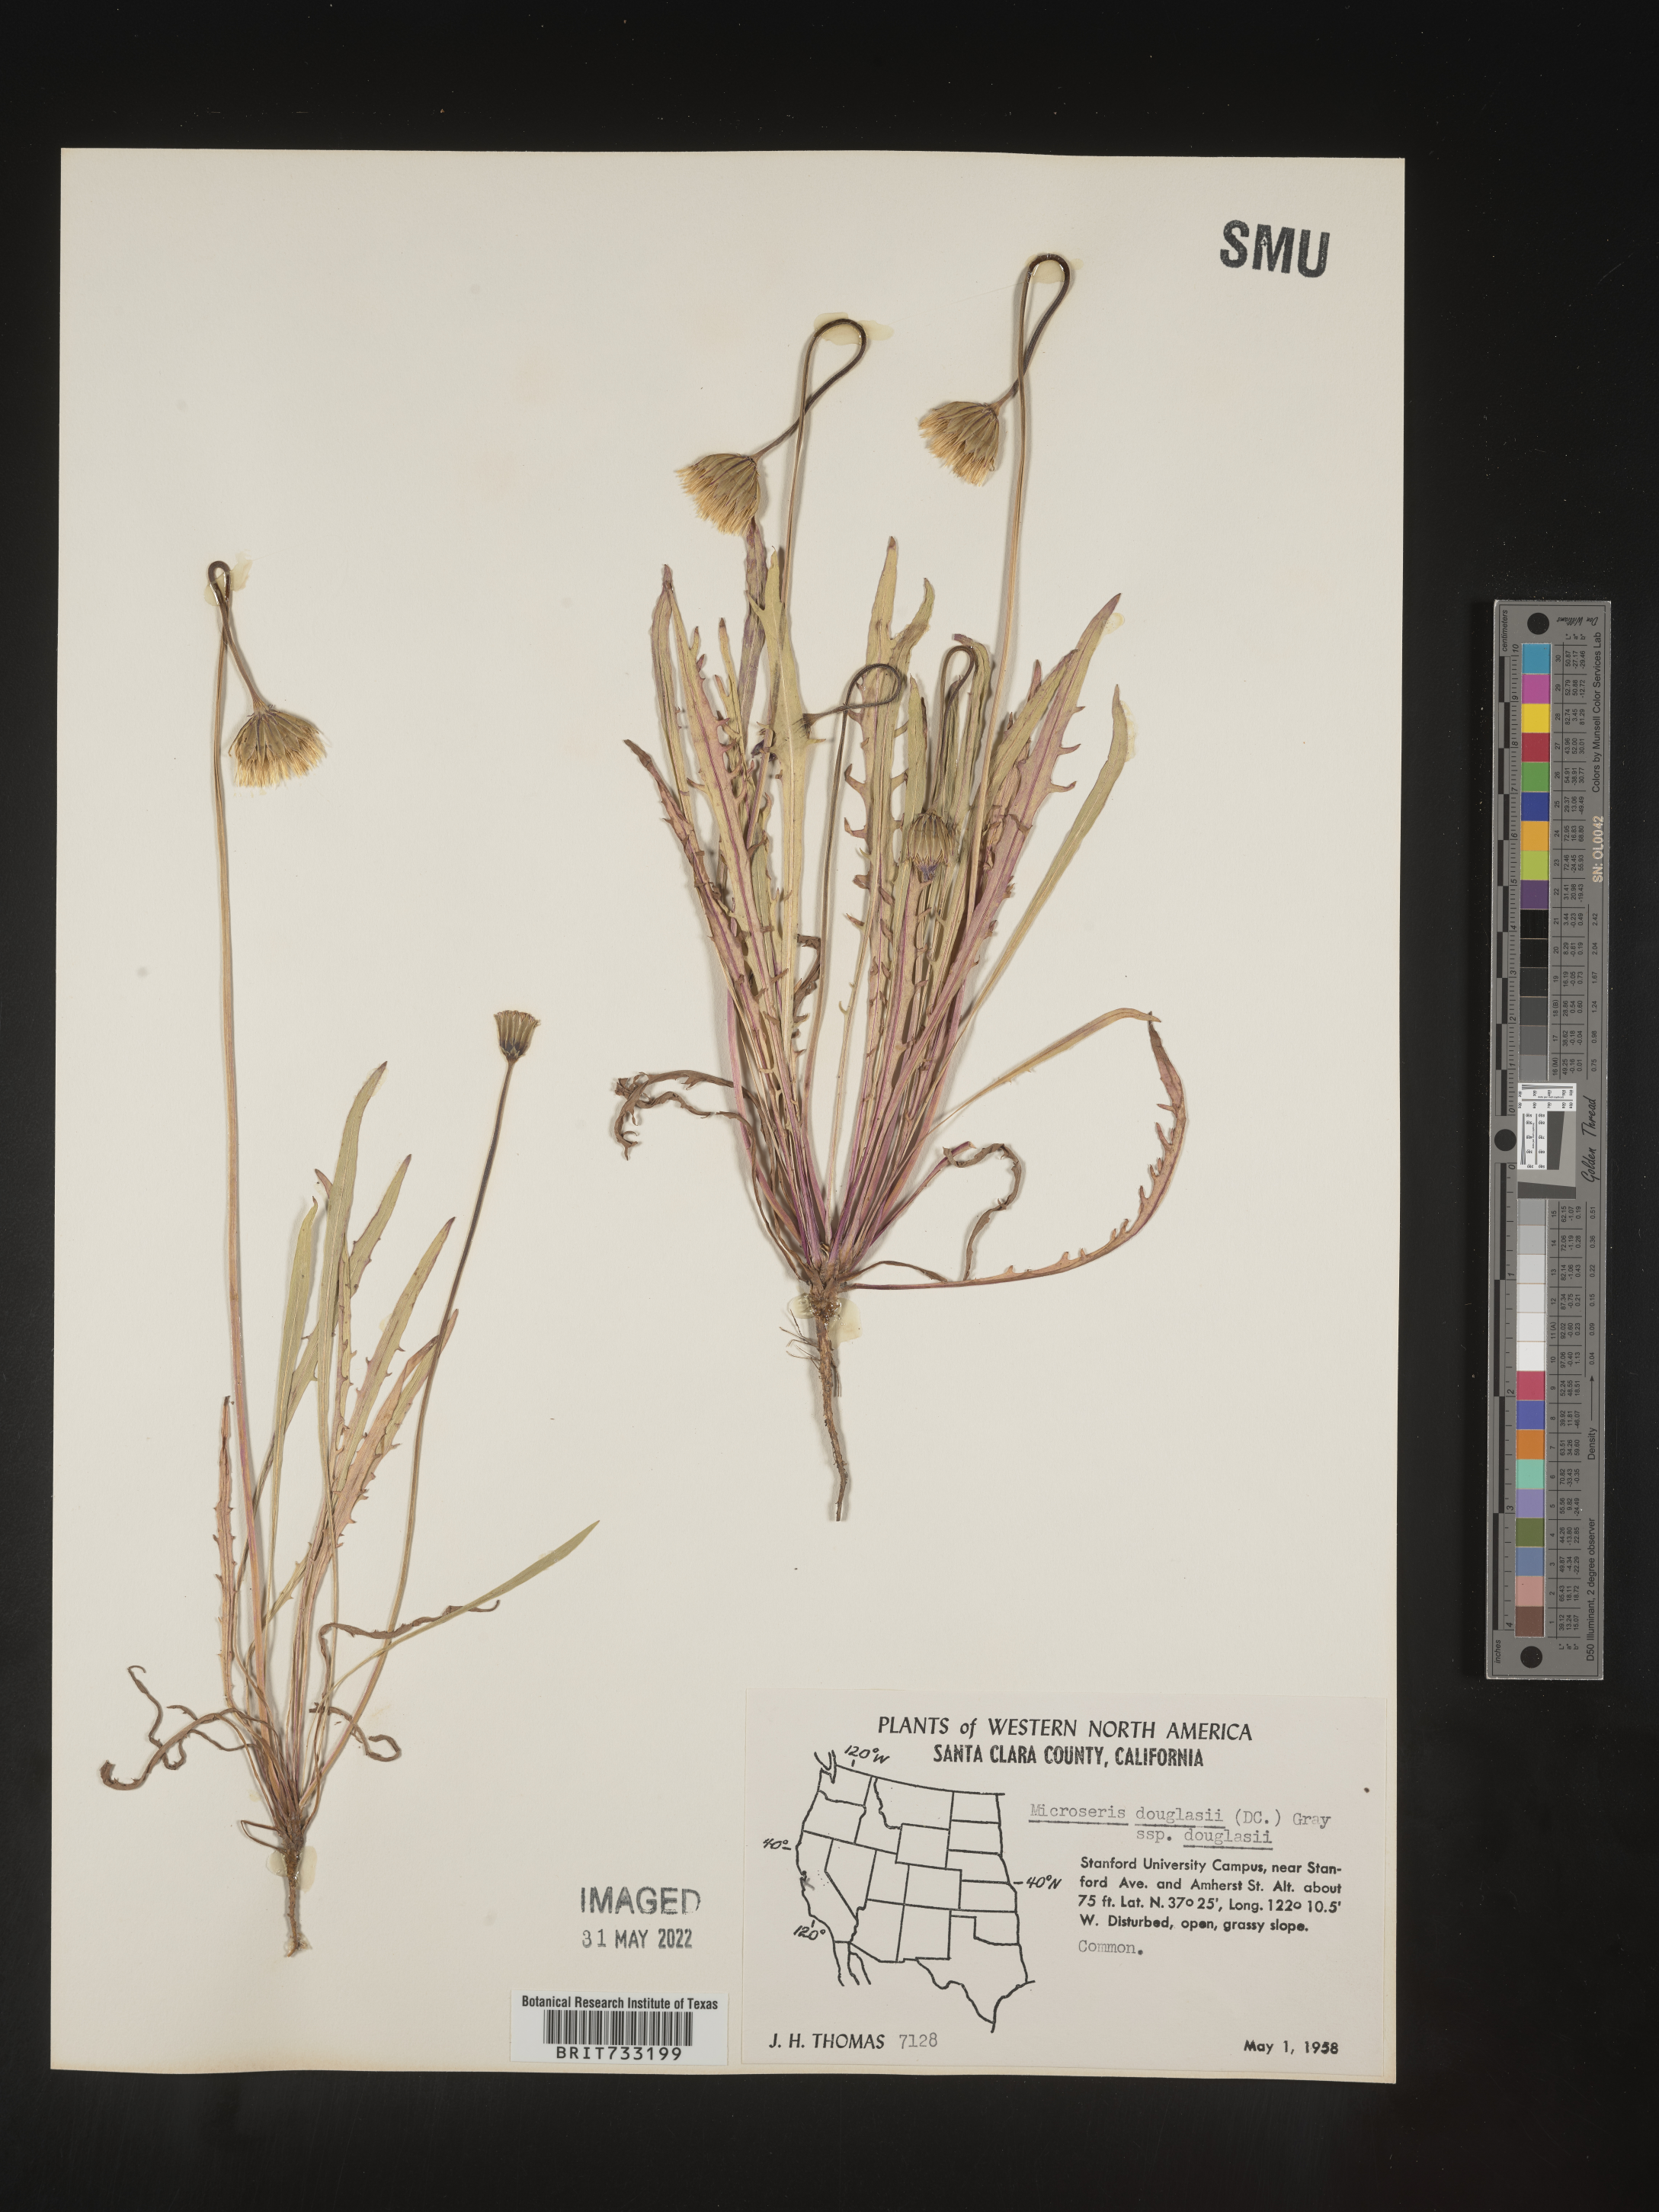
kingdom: Plantae
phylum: Tracheophyta
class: Magnoliopsida
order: Asterales
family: Asteraceae
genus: Microseris
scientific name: Microseris douglasii
